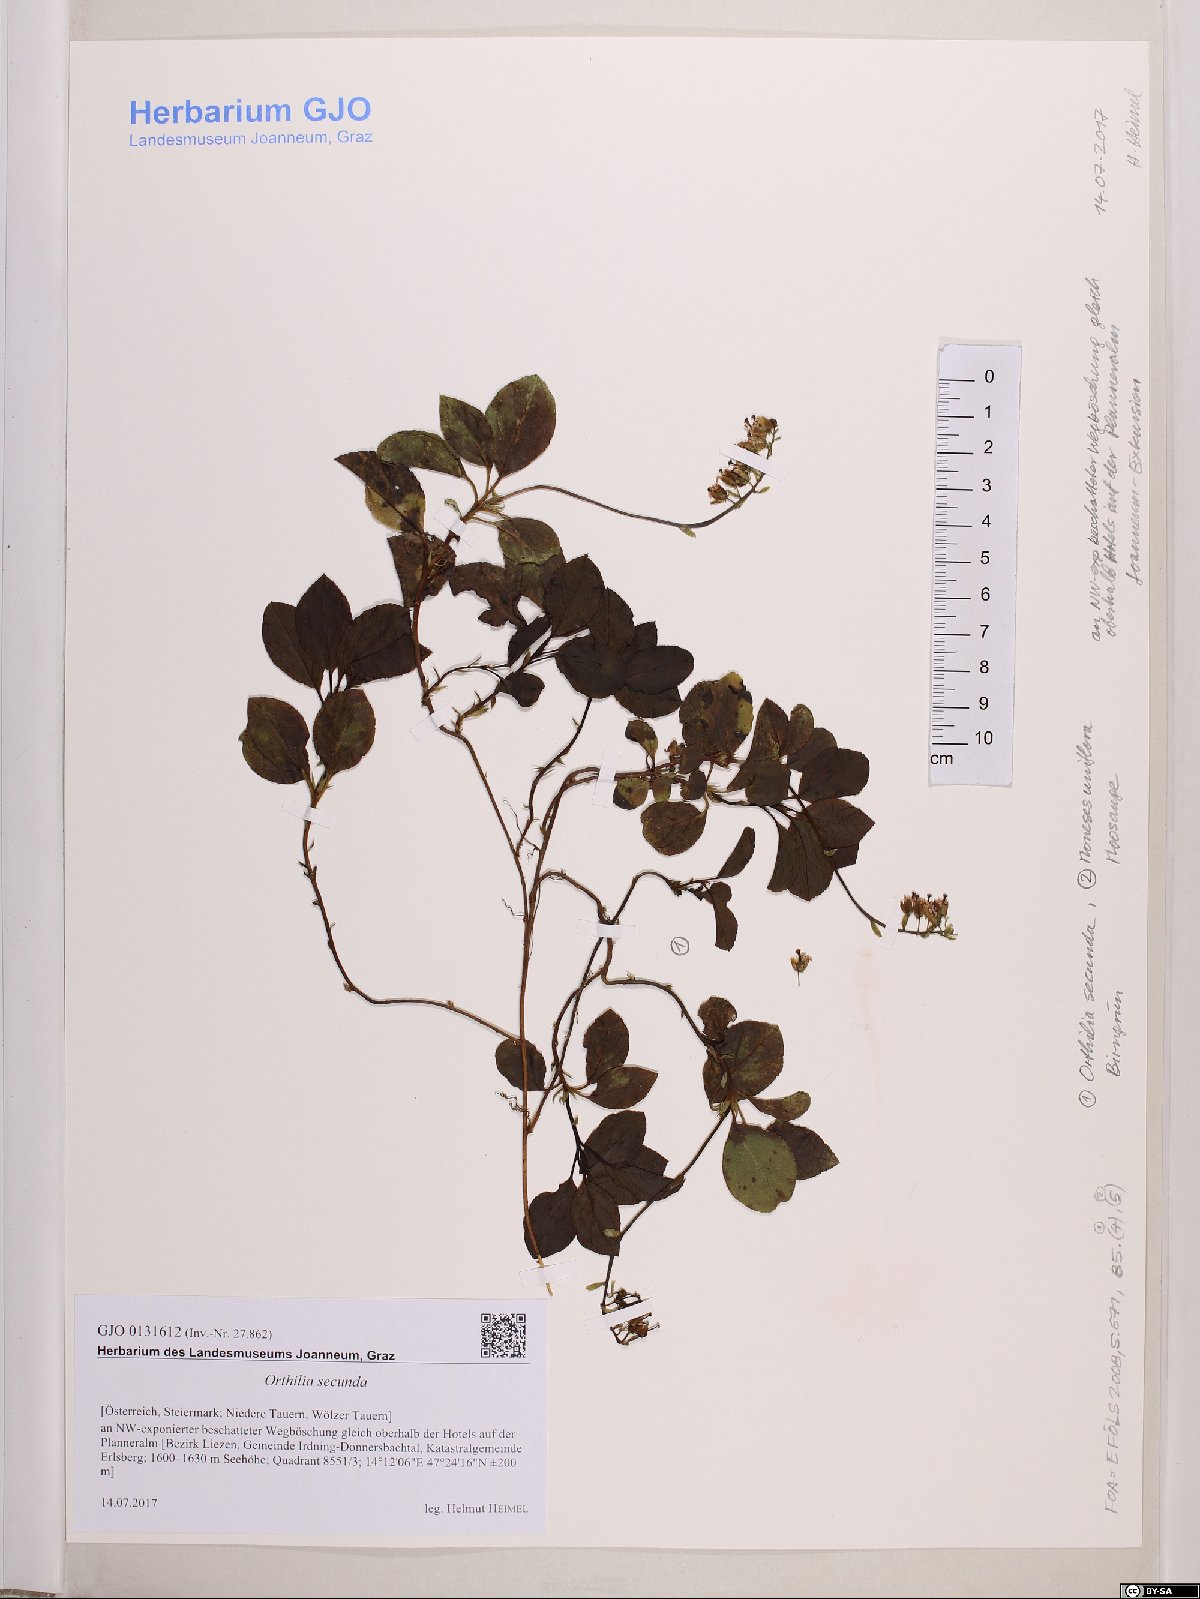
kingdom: Plantae
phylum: Tracheophyta
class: Magnoliopsida
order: Ericales
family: Ericaceae
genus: Orthilia
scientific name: Orthilia secunda
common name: One-sided orthilia
